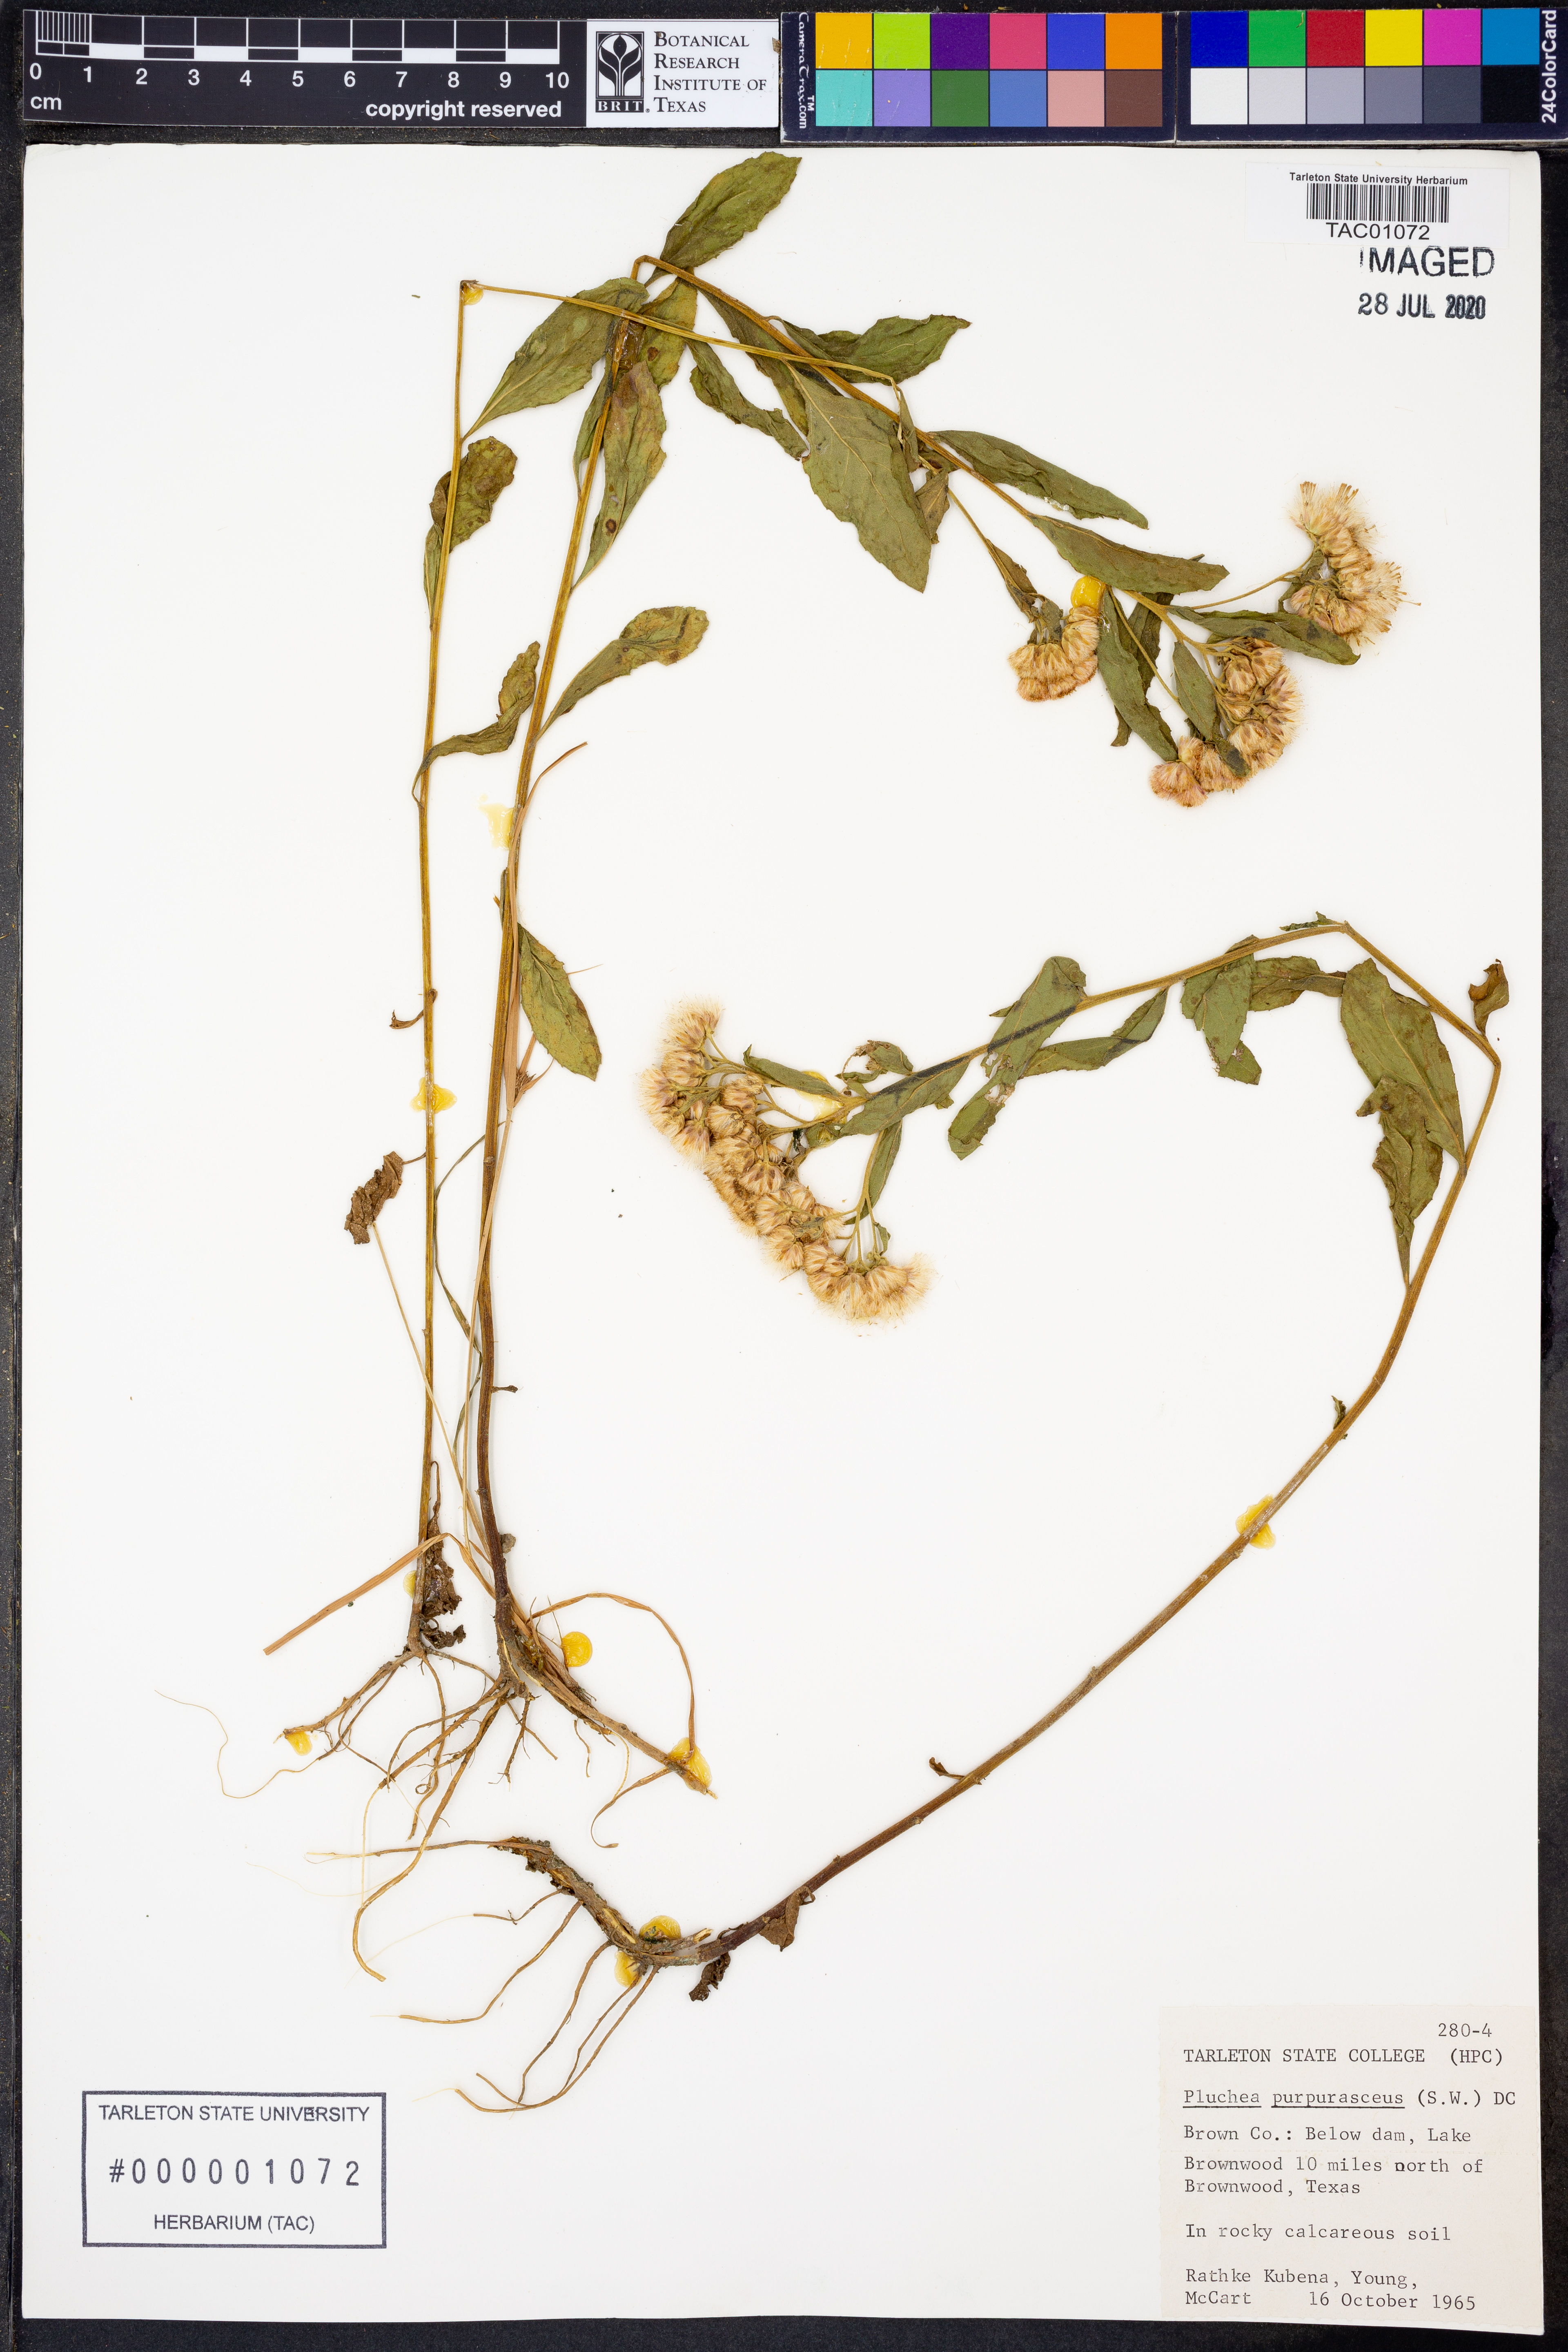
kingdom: Plantae
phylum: Tracheophyta
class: Magnoliopsida
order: Asterales
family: Asteraceae
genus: Pluchea
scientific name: Pluchea odorata
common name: Saltmarsh fleabane
